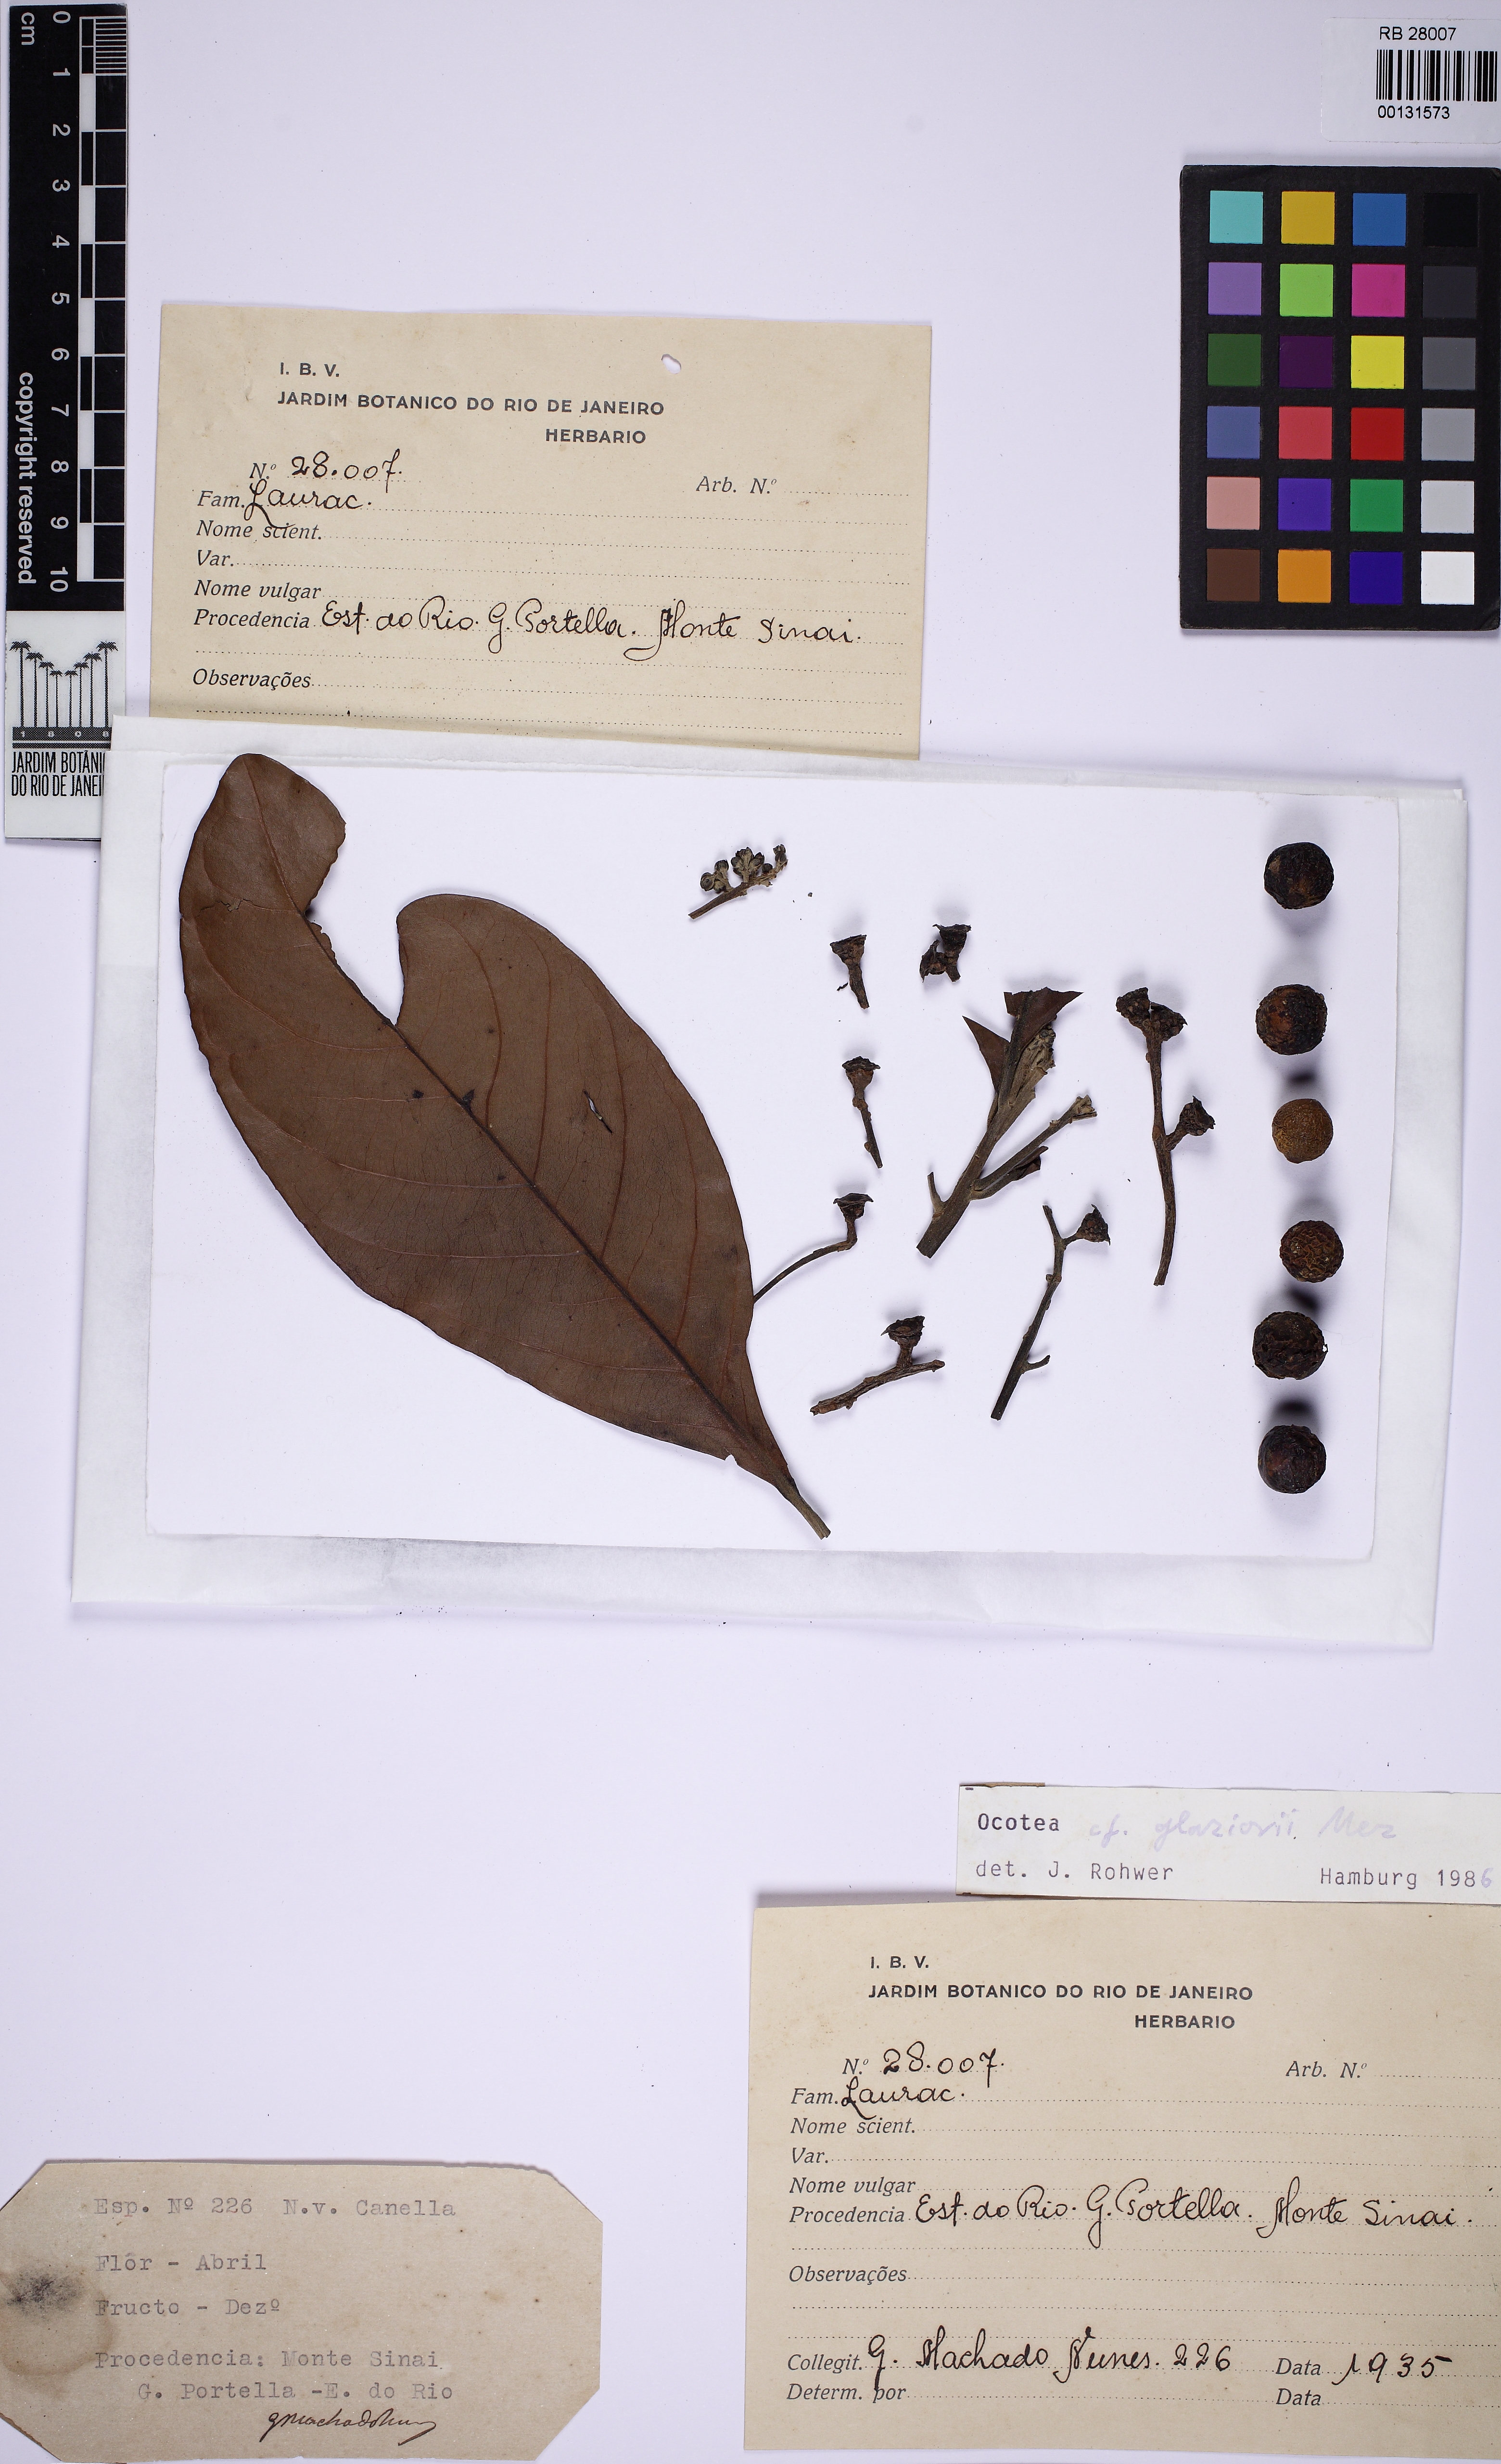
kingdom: Plantae
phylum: Tracheophyta
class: Magnoliopsida
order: Laurales
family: Lauraceae
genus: Ocotea
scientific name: Ocotea glaziovii
